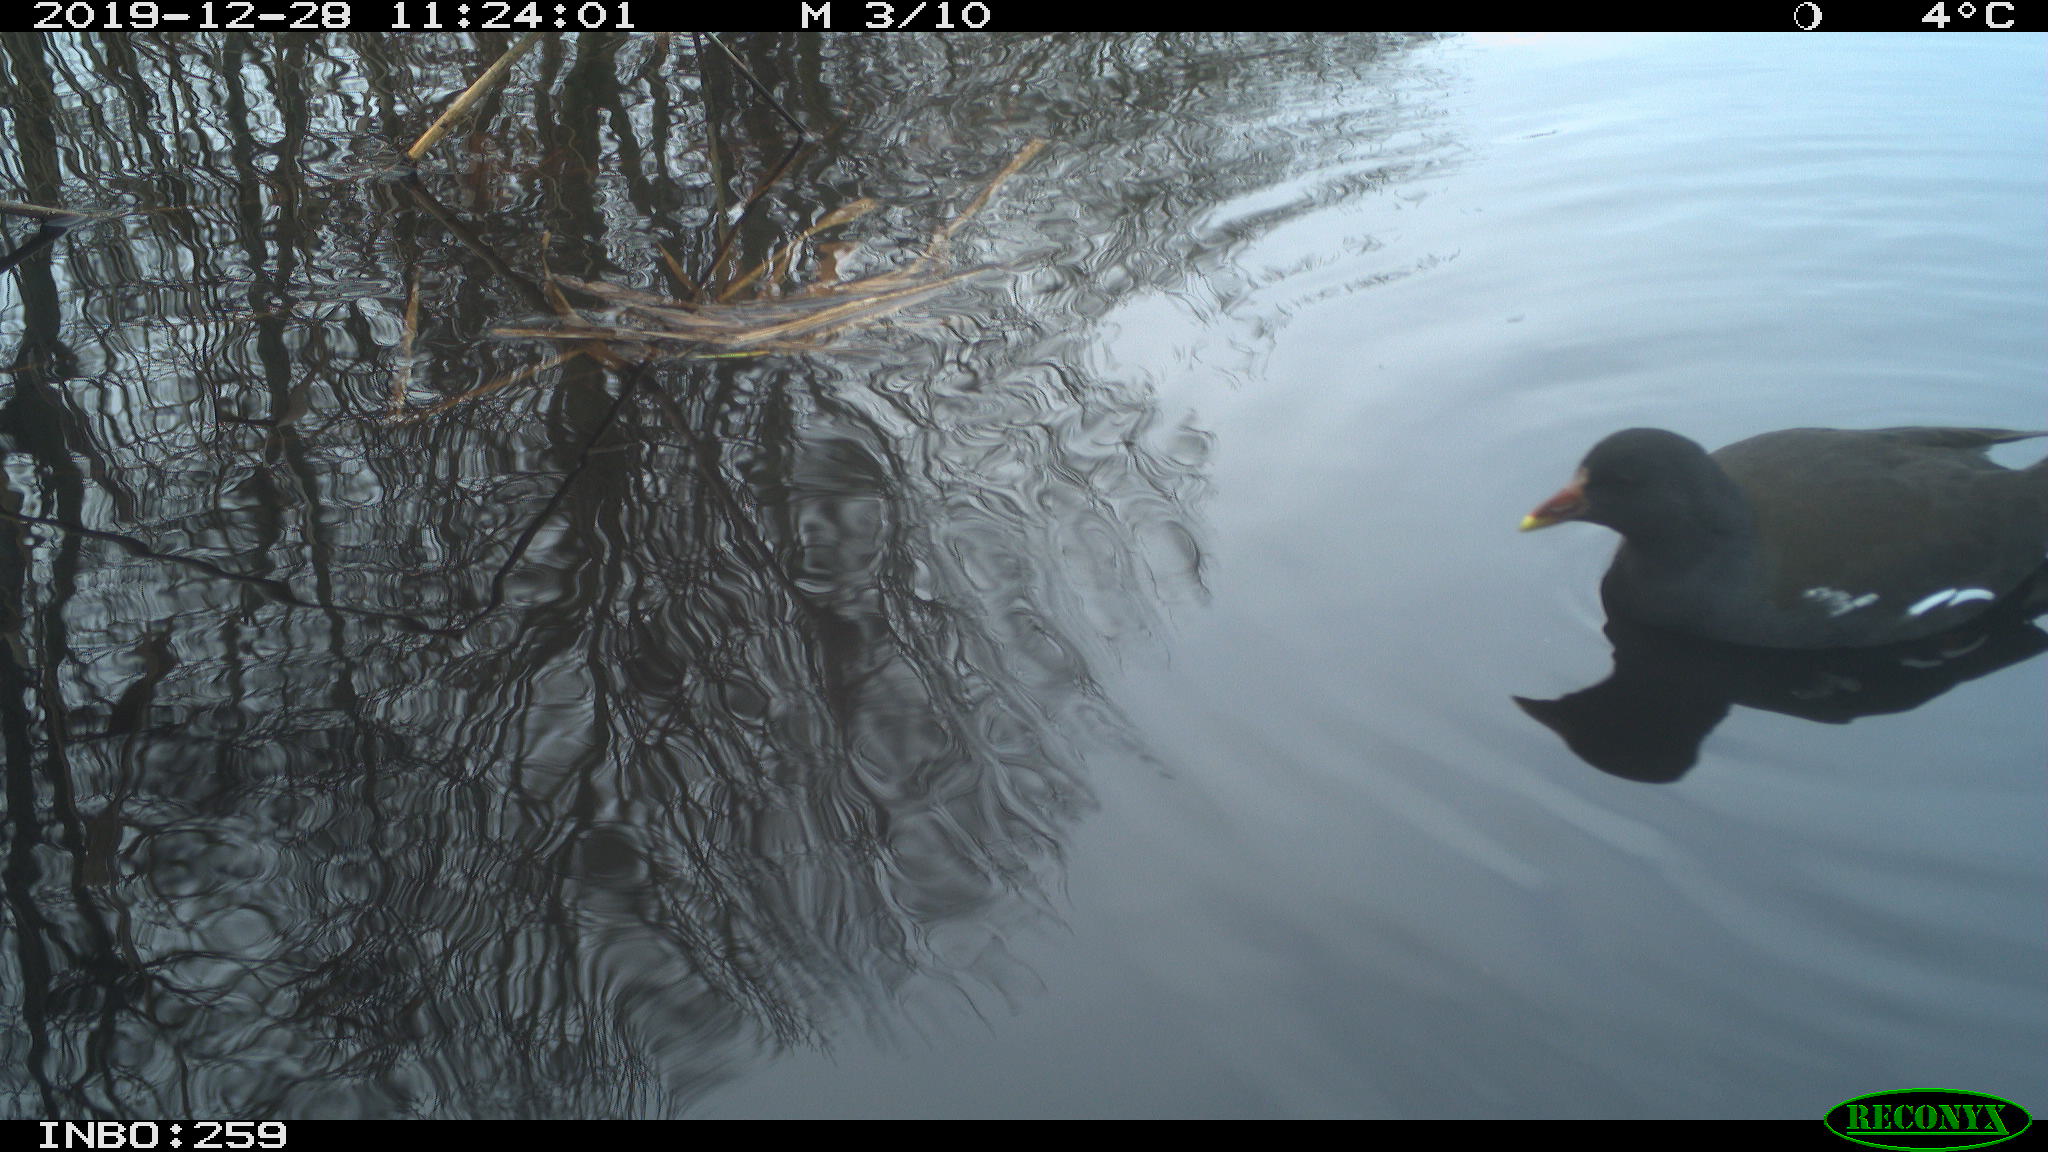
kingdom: Animalia
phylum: Chordata
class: Aves
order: Gruiformes
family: Rallidae
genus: Gallinula
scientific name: Gallinula chloropus
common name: Common moorhen
